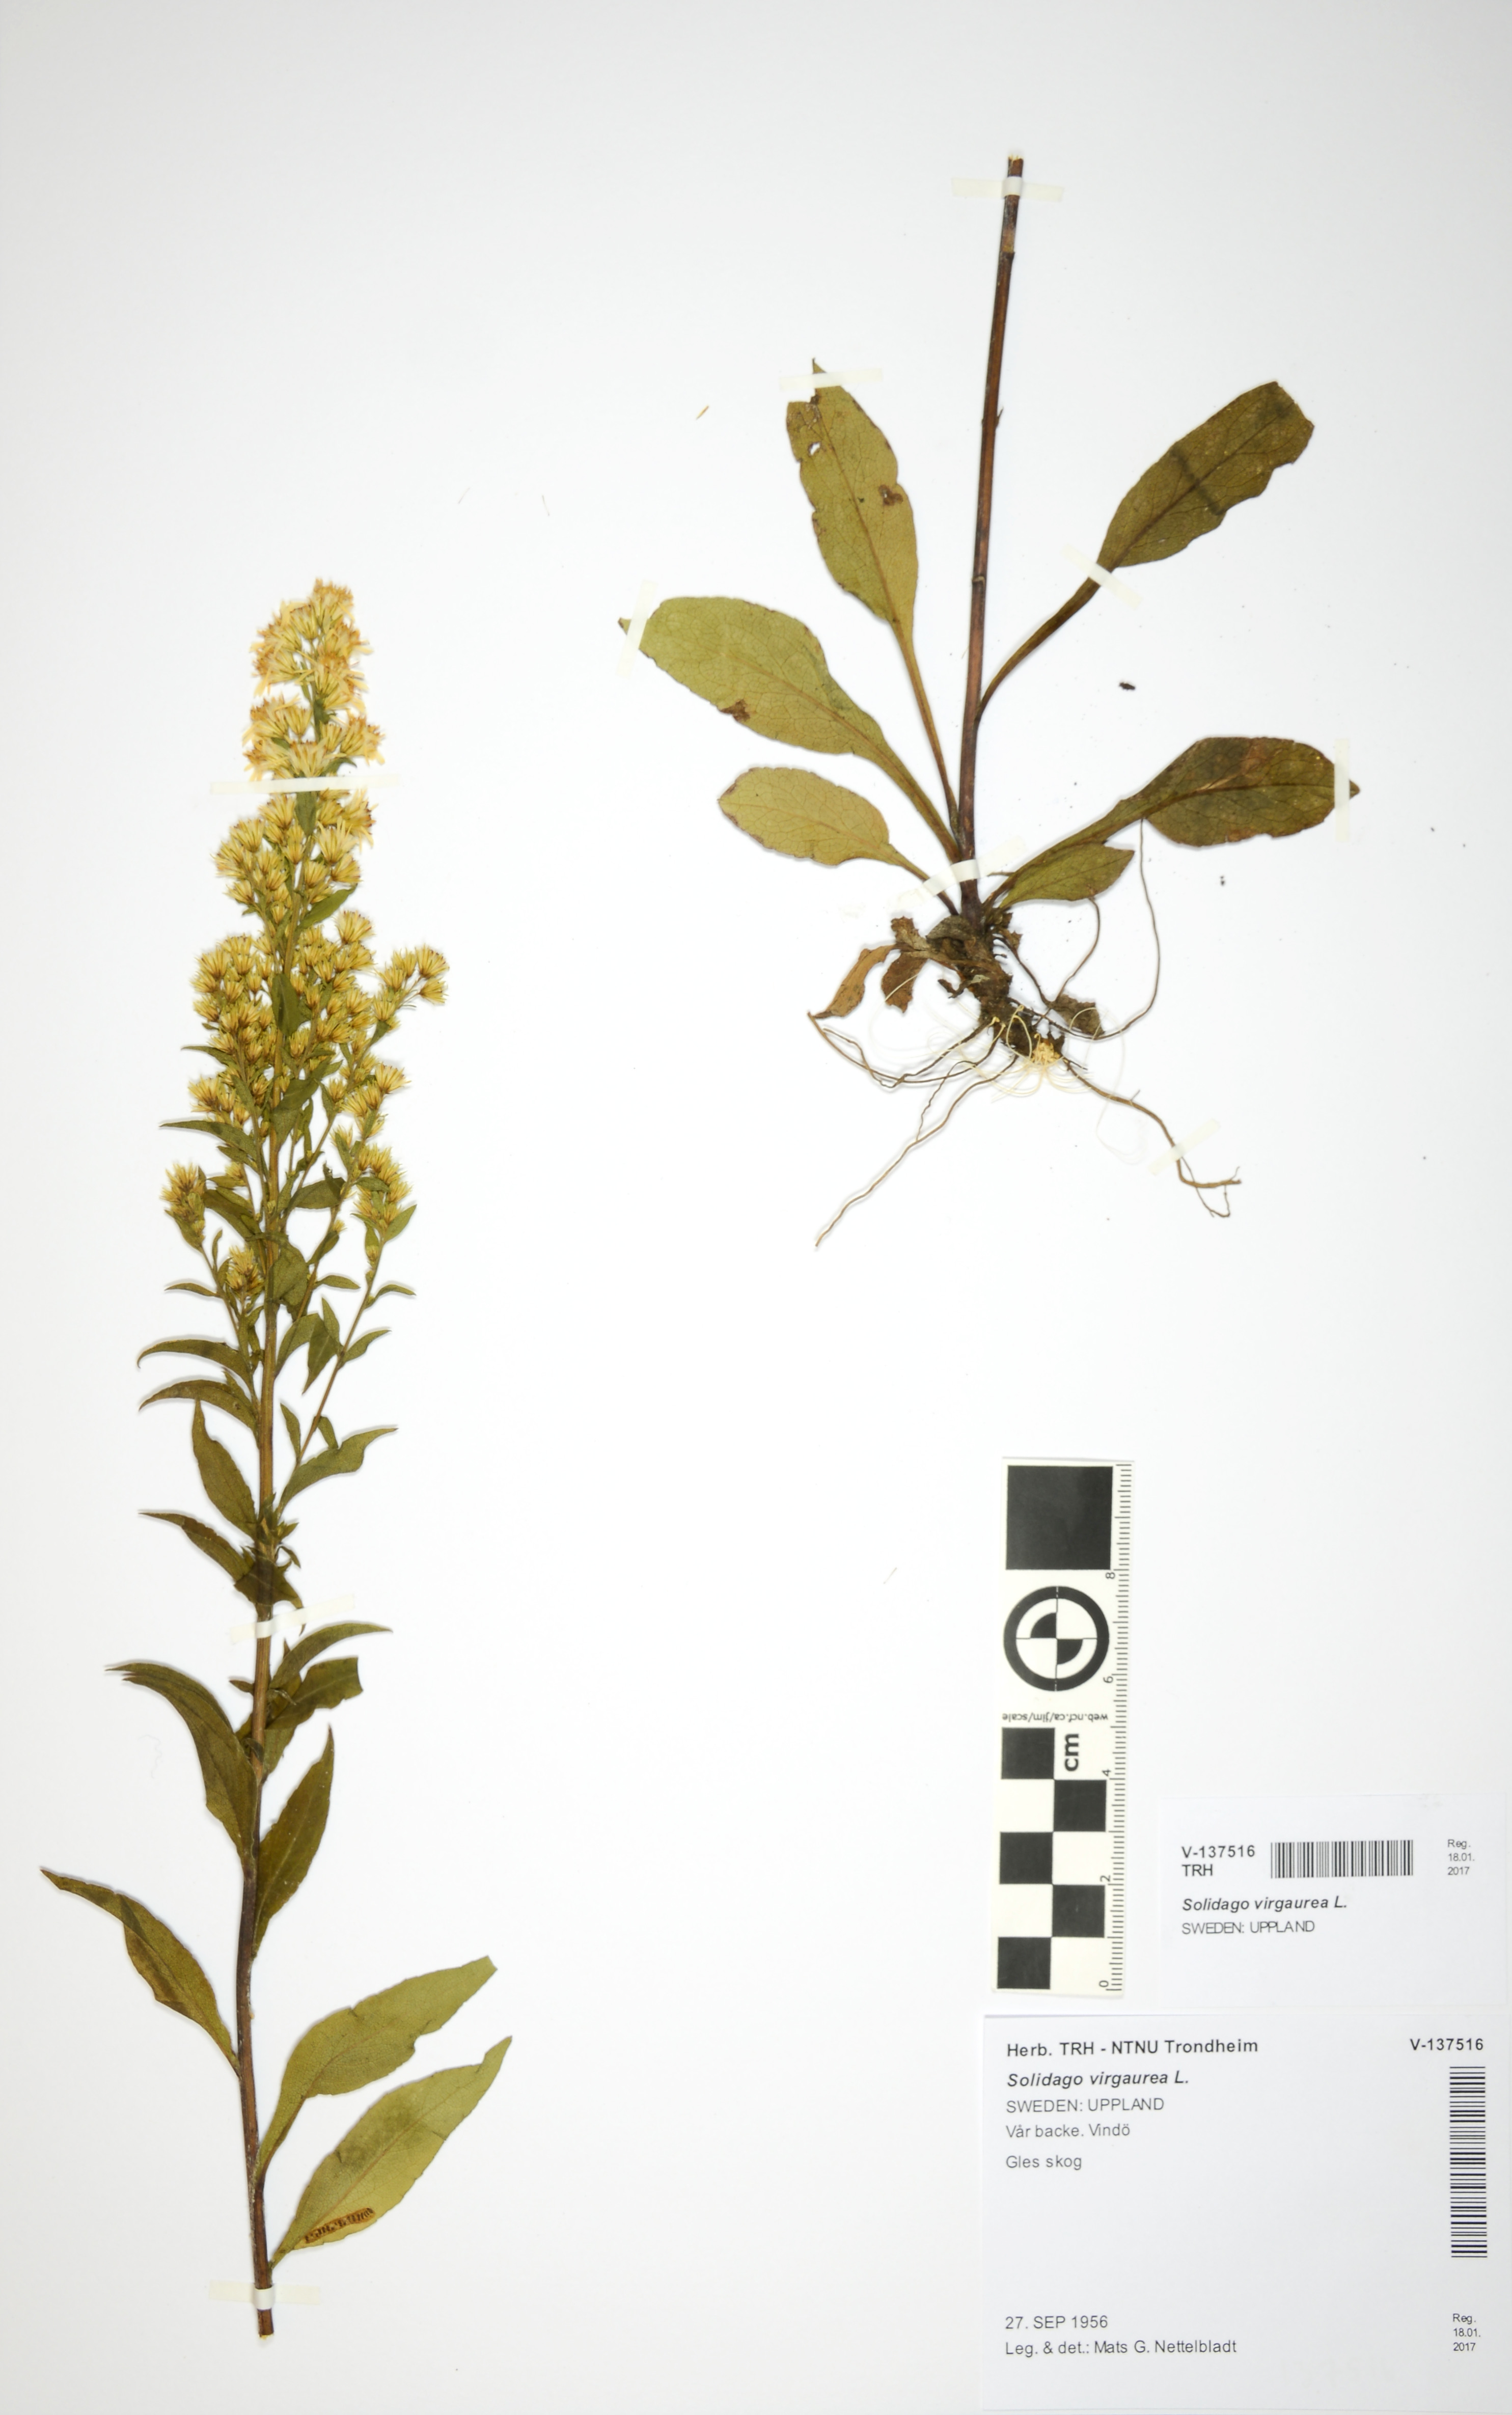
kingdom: Plantae
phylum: Tracheophyta
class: Magnoliopsida
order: Asterales
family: Asteraceae
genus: Solidago
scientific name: Solidago virgaurea
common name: Goldenrod
